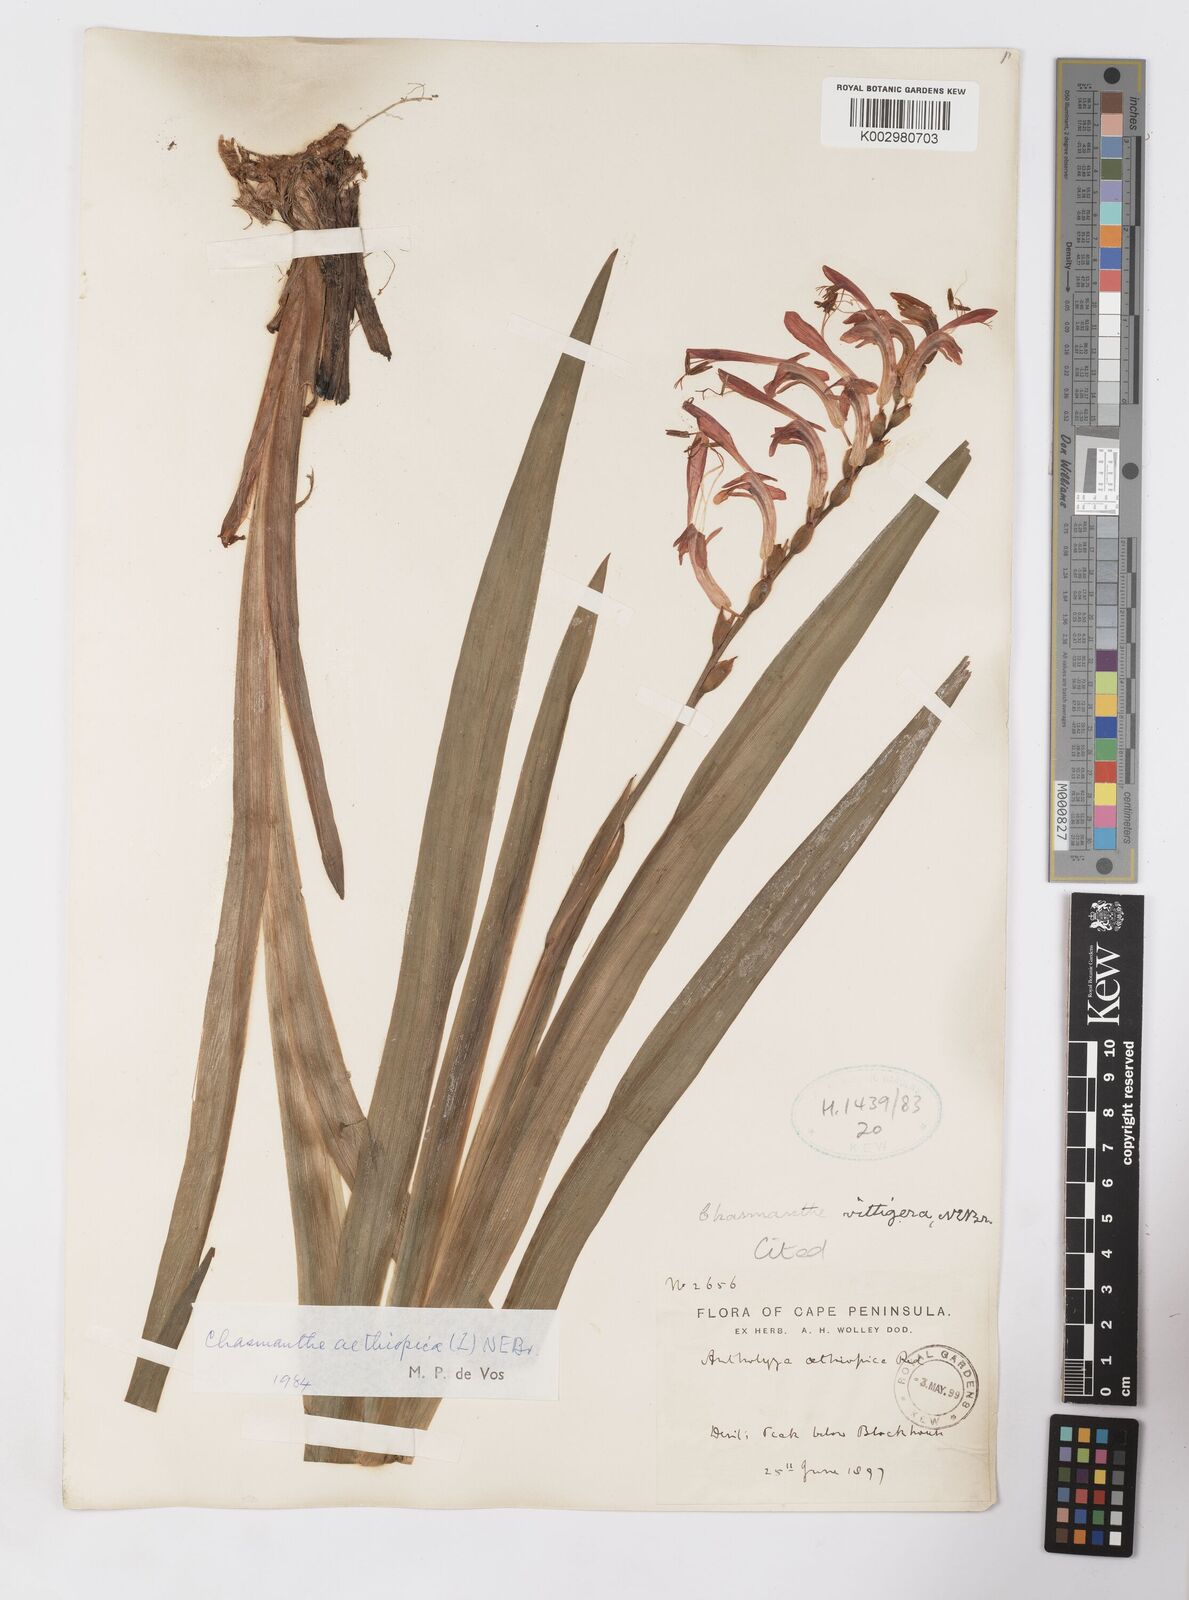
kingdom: Plantae
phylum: Tracheophyta
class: Liliopsida
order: Asparagales
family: Iridaceae
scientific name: Iridaceae
